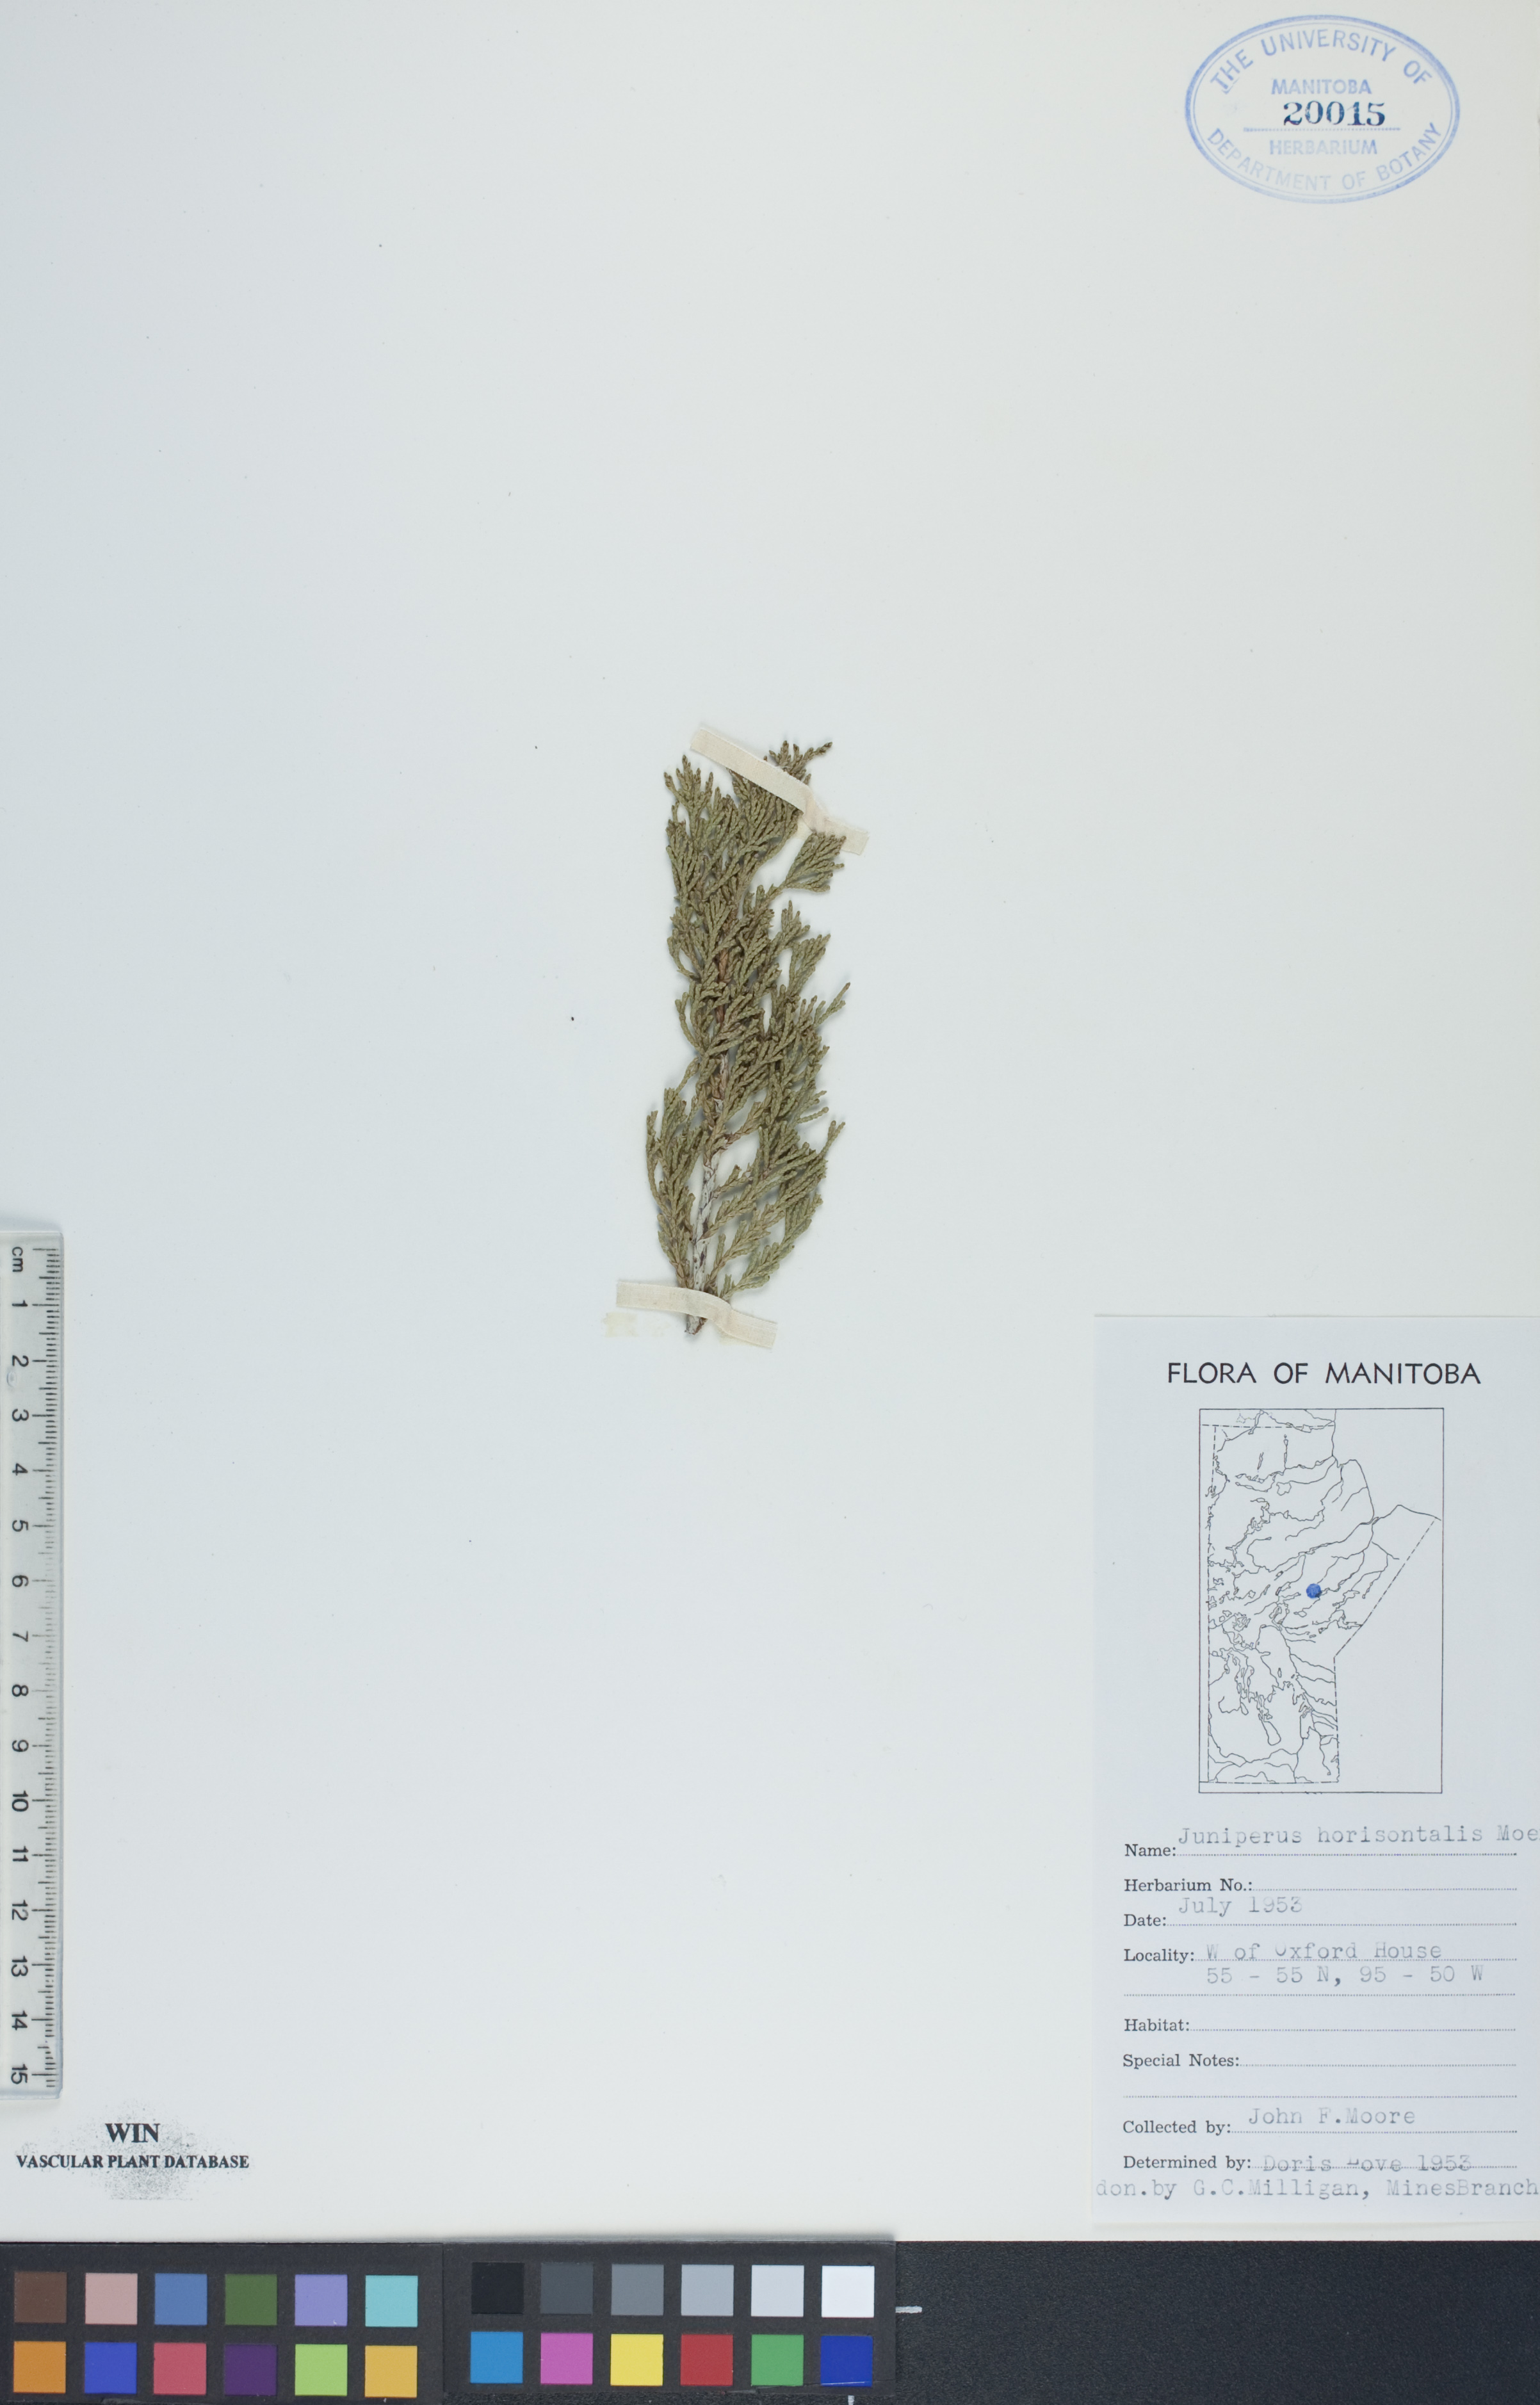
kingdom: Plantae
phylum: Tracheophyta
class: Pinopsida
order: Pinales
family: Cupressaceae
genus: Juniperus
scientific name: Juniperus horizontalis
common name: Creeping juniper
